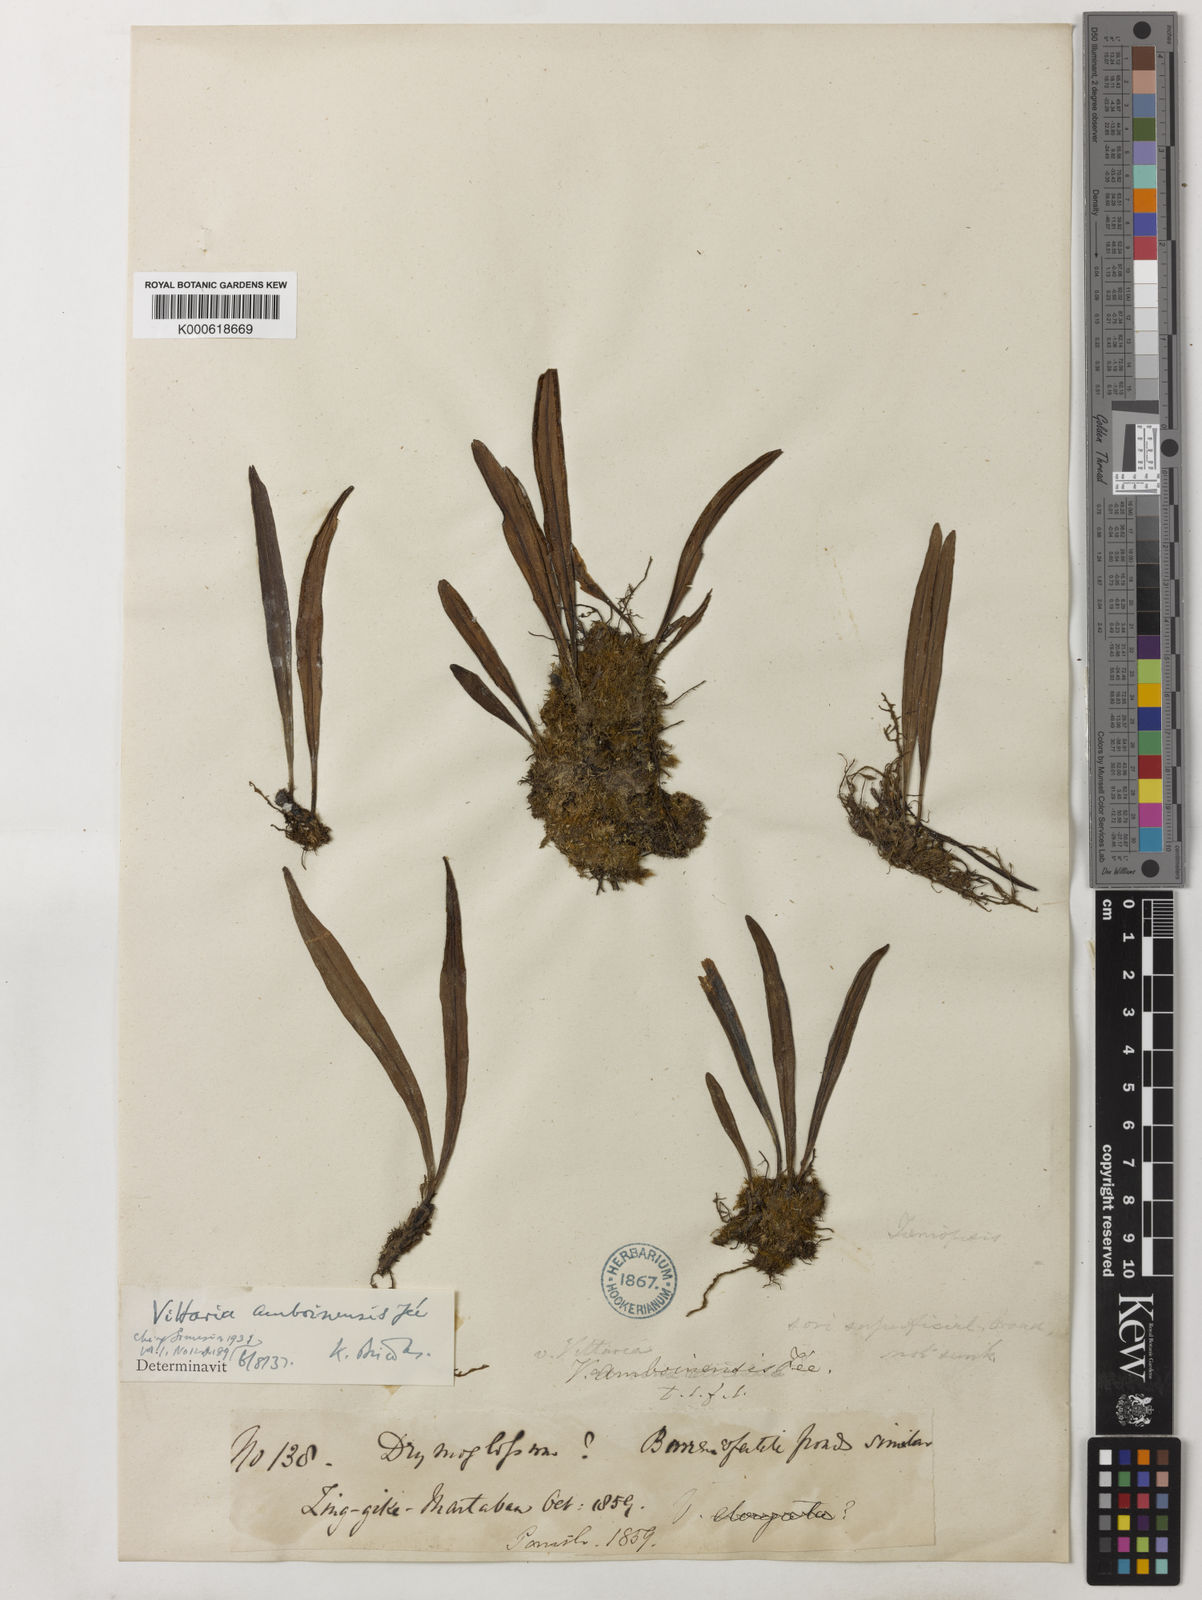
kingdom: Plantae
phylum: Tracheophyta
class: Polypodiopsida
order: Polypodiales
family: Pteridaceae
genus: Vittaria
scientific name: Vittaria
